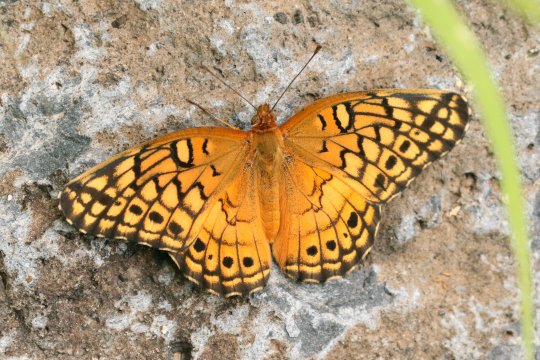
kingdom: Animalia
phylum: Arthropoda
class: Insecta
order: Lepidoptera
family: Nymphalidae
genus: Euptoieta
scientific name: Euptoieta claudia
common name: Variegated Fritillary
